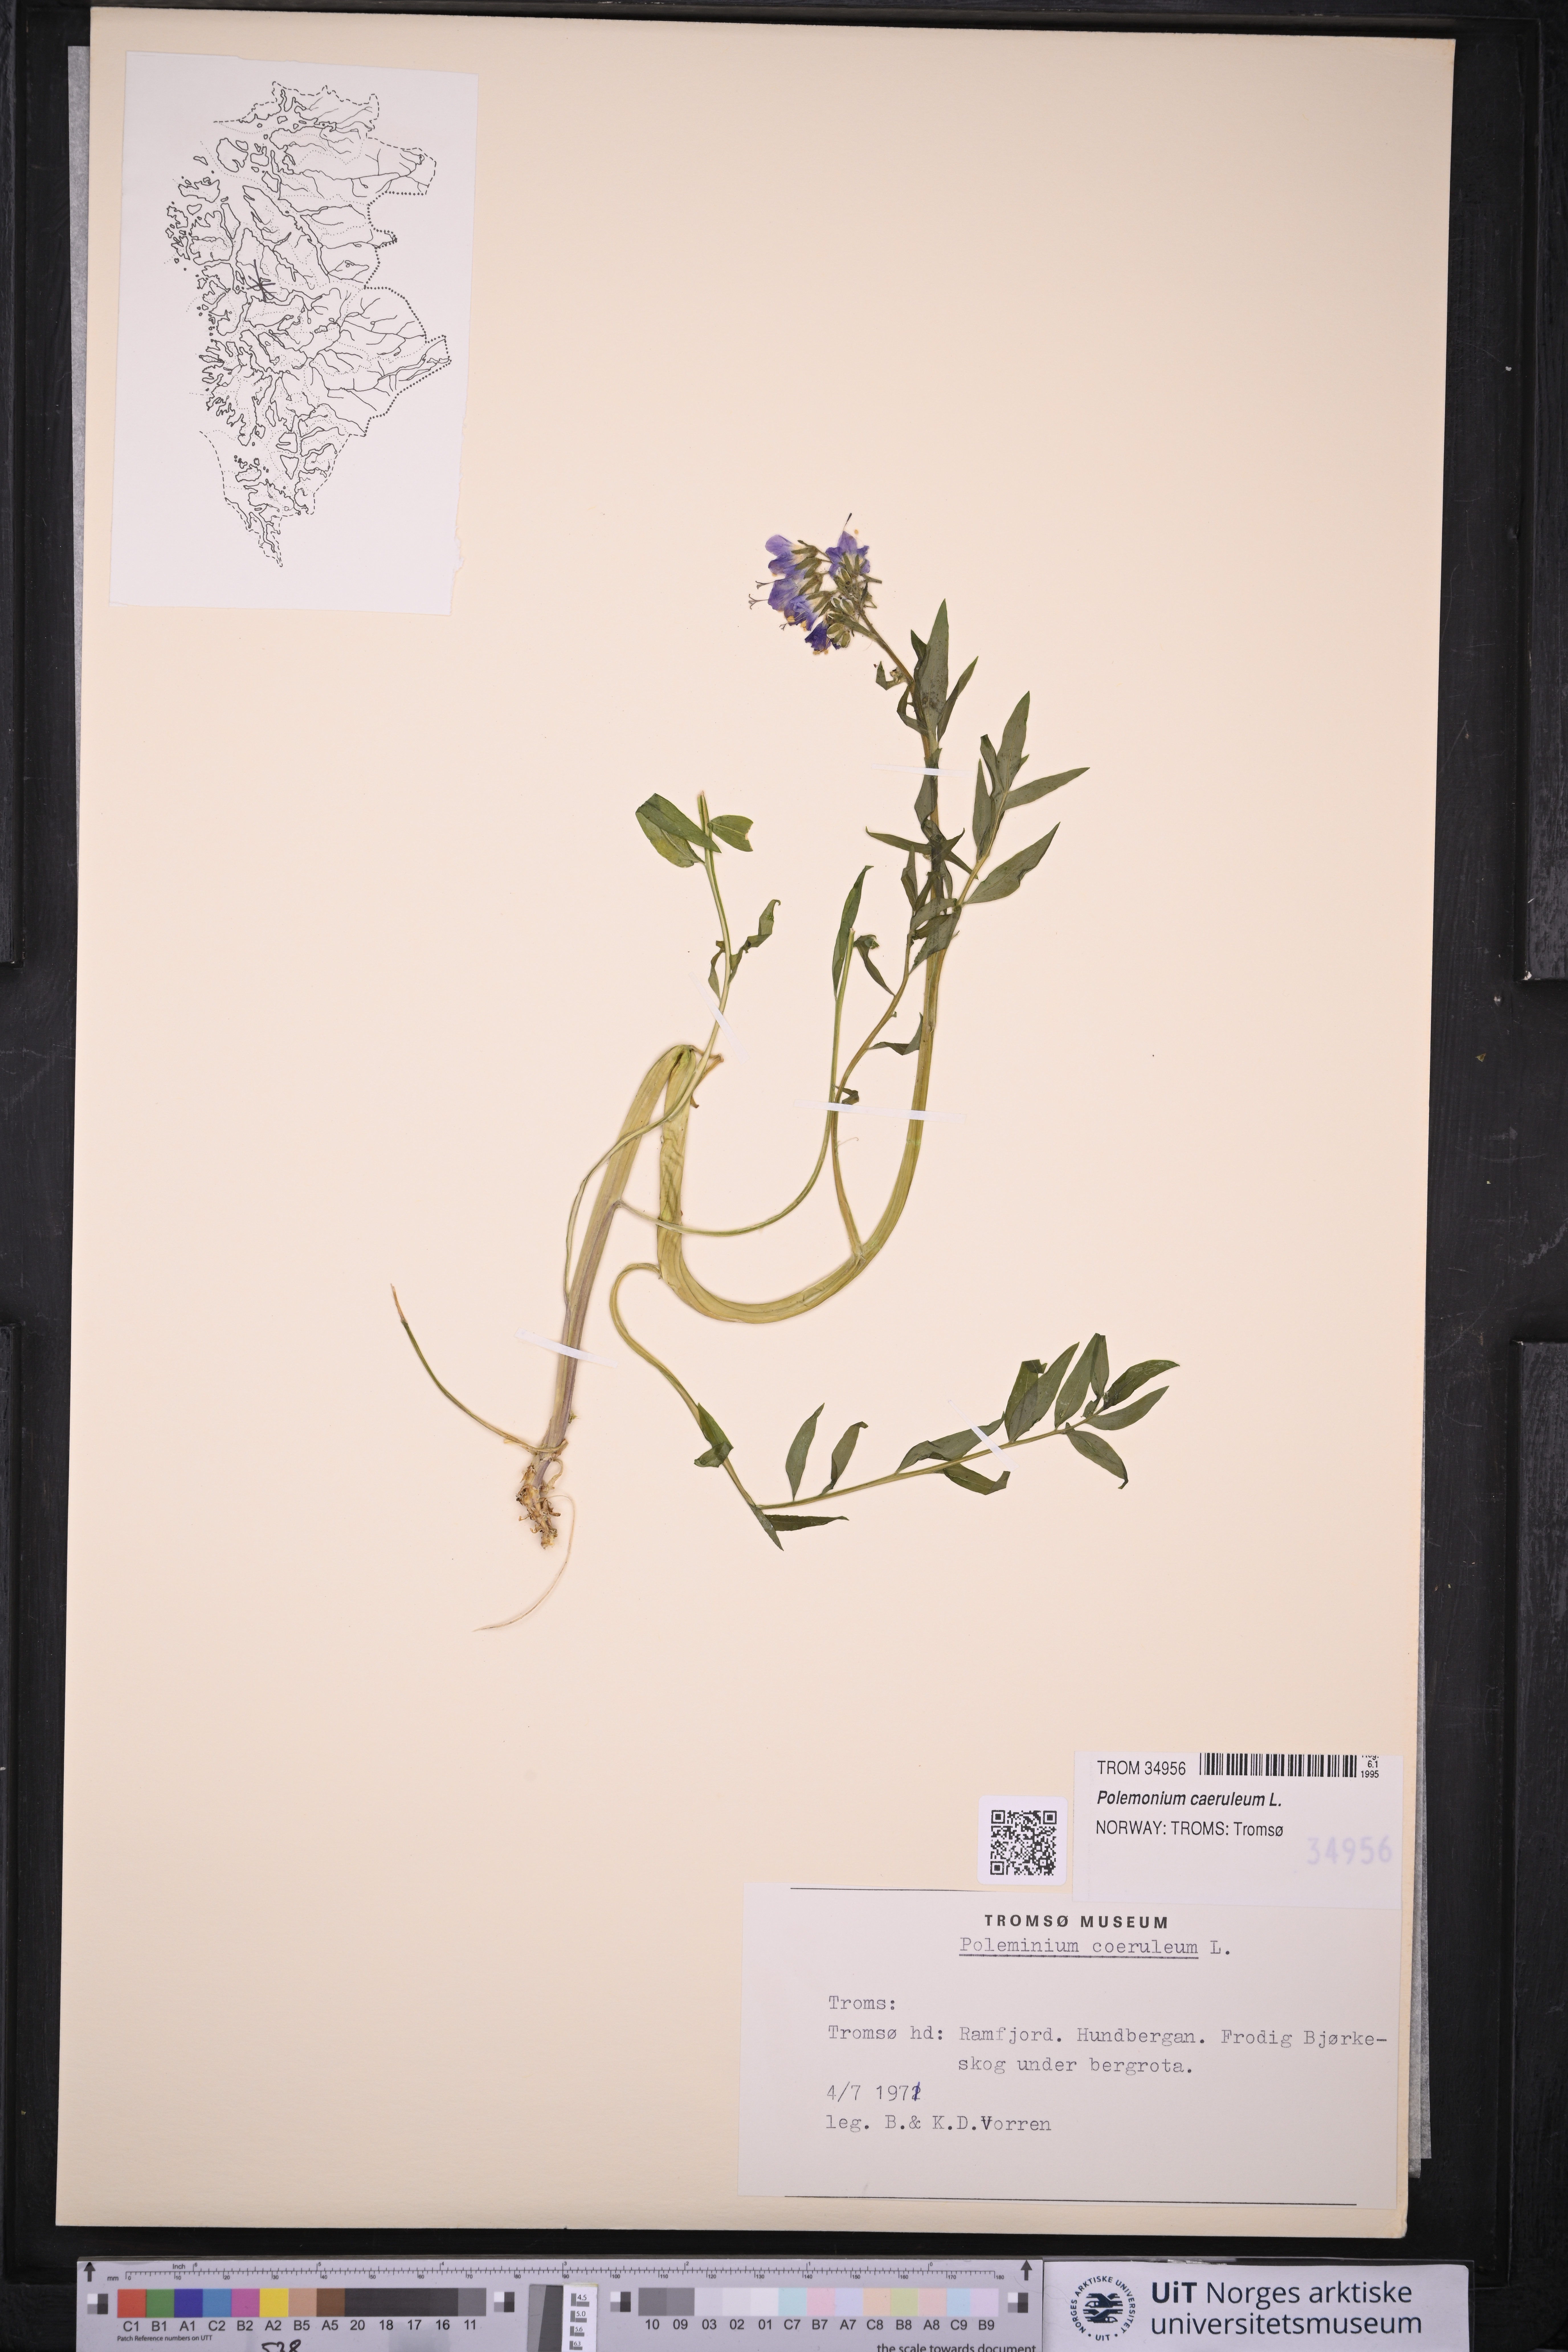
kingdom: Plantae
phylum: Tracheophyta
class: Magnoliopsida
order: Ericales
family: Polemoniaceae
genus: Polemonium
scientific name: Polemonium caeruleum
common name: Jacob's-ladder
